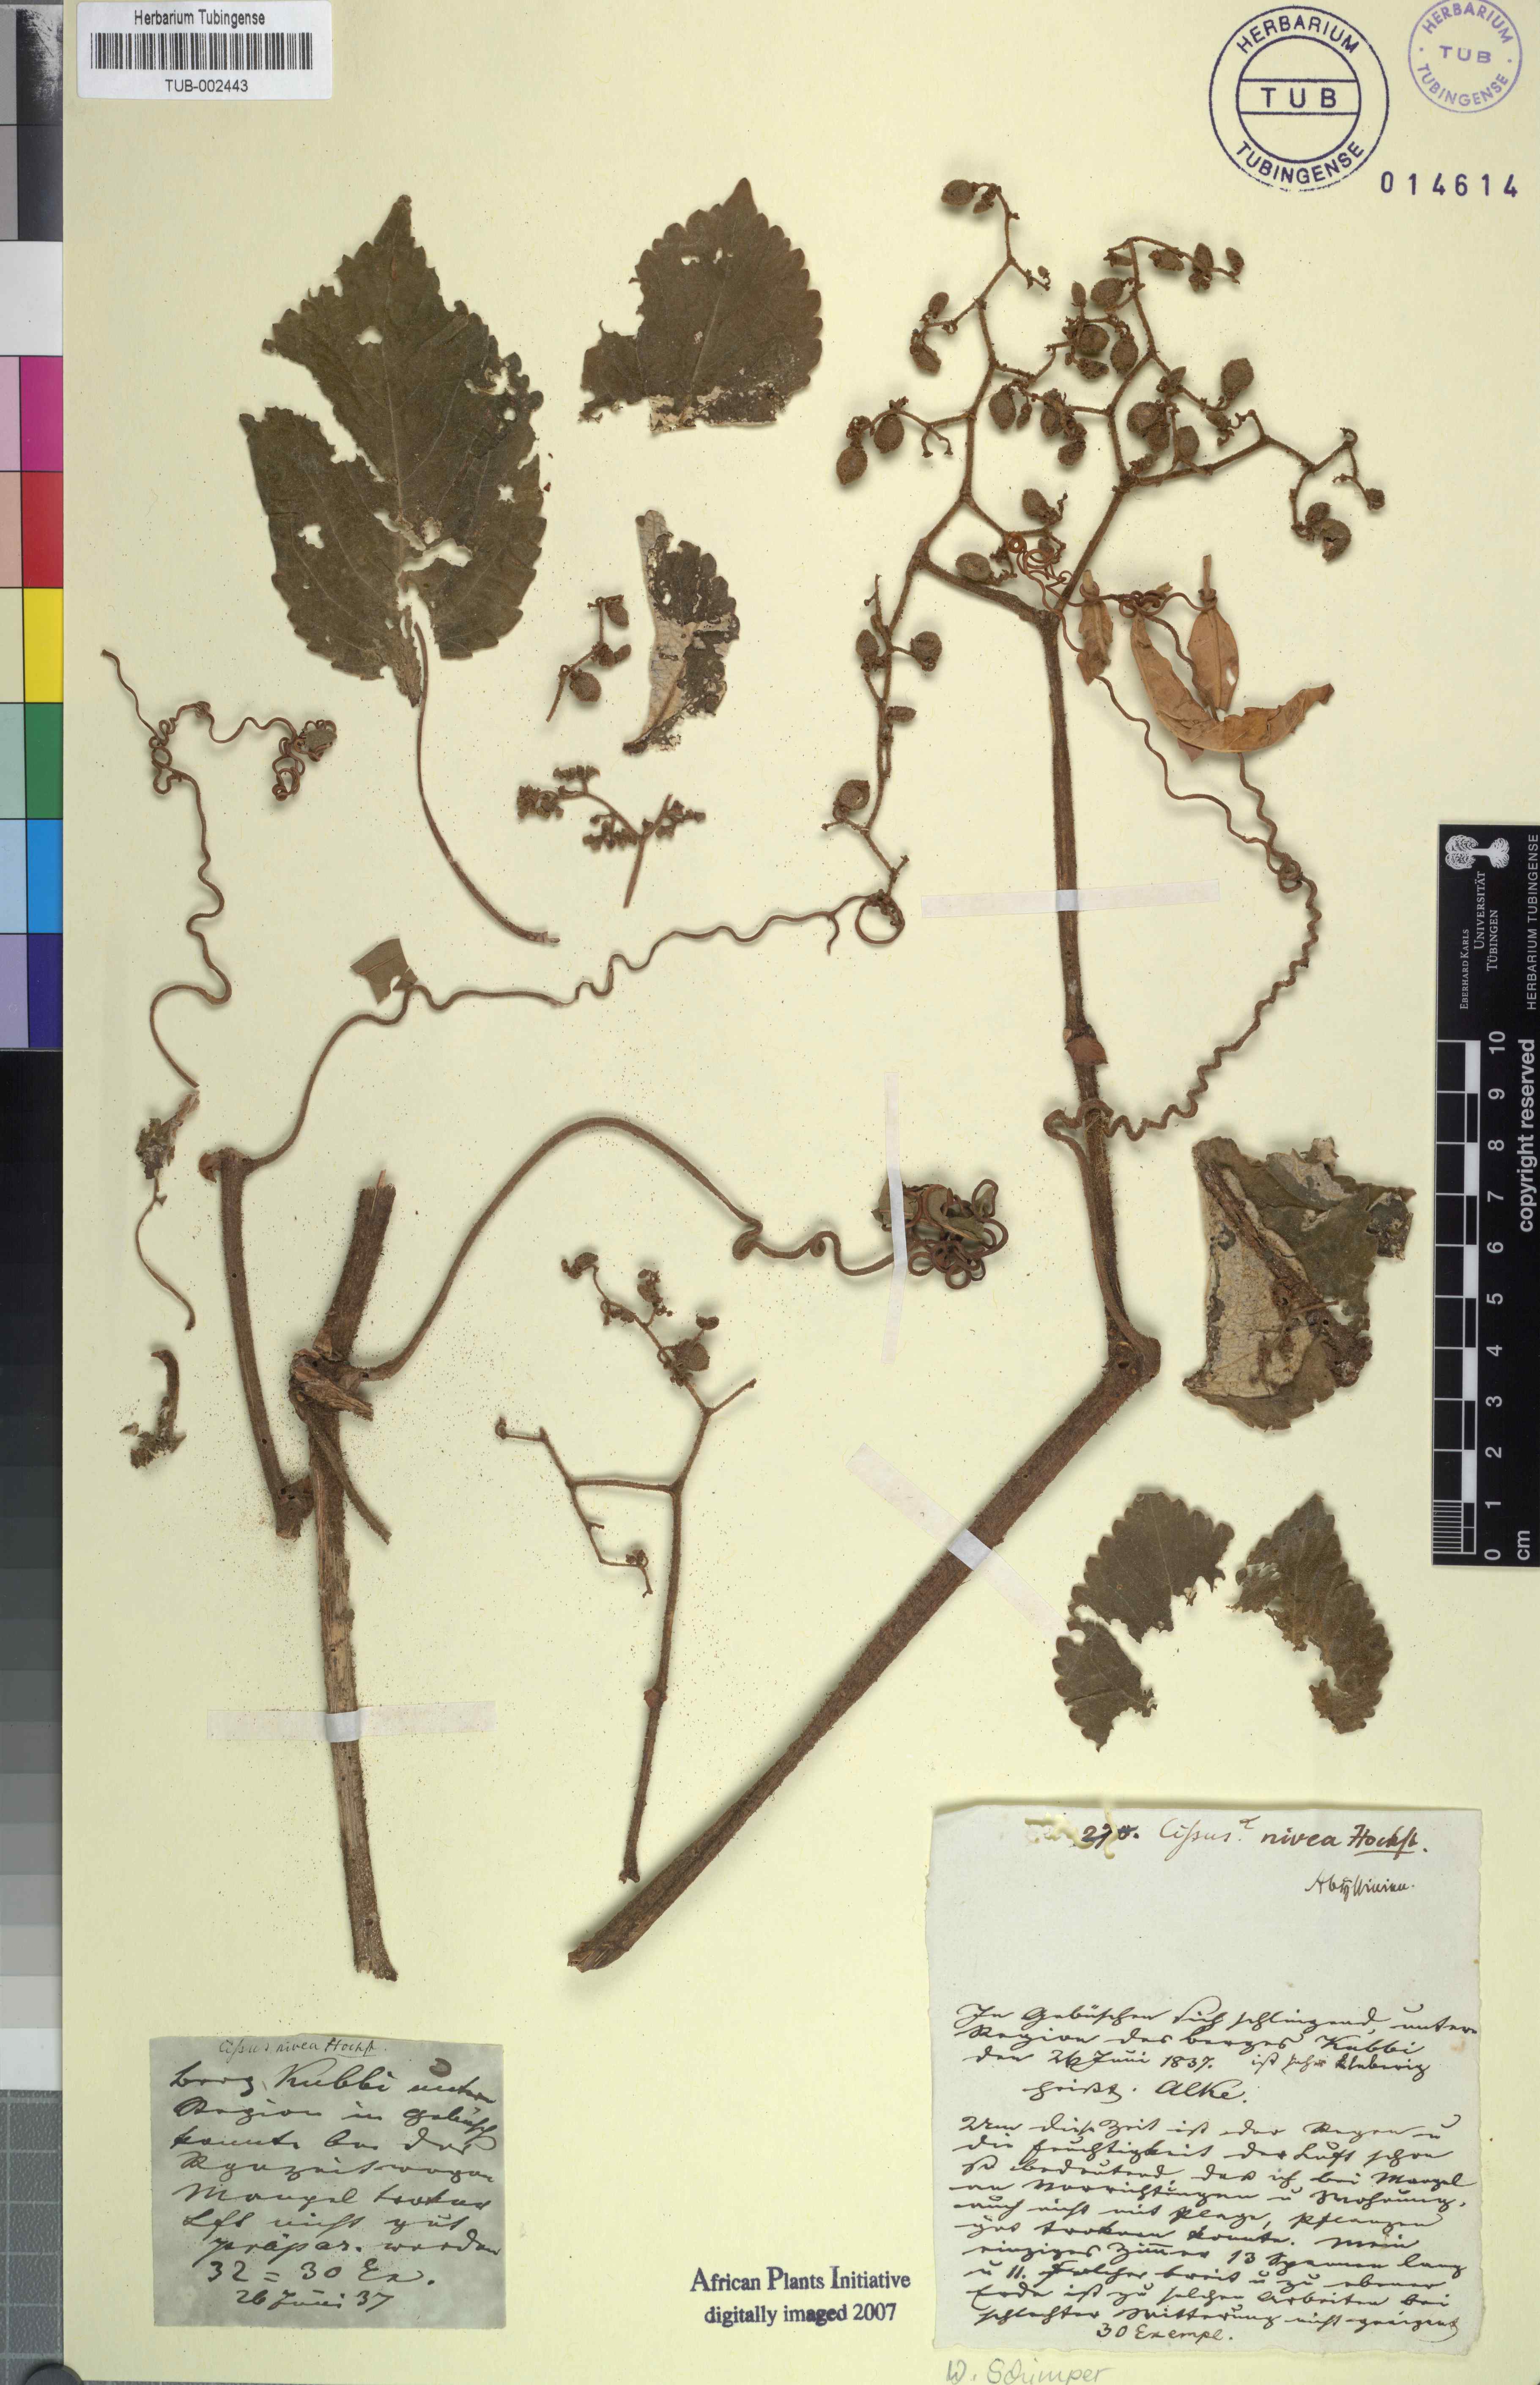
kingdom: Plantae
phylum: Tracheophyta
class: Magnoliopsida
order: Vitales
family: Vitaceae
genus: Cyphostemma
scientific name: Cyphostemma niveum
